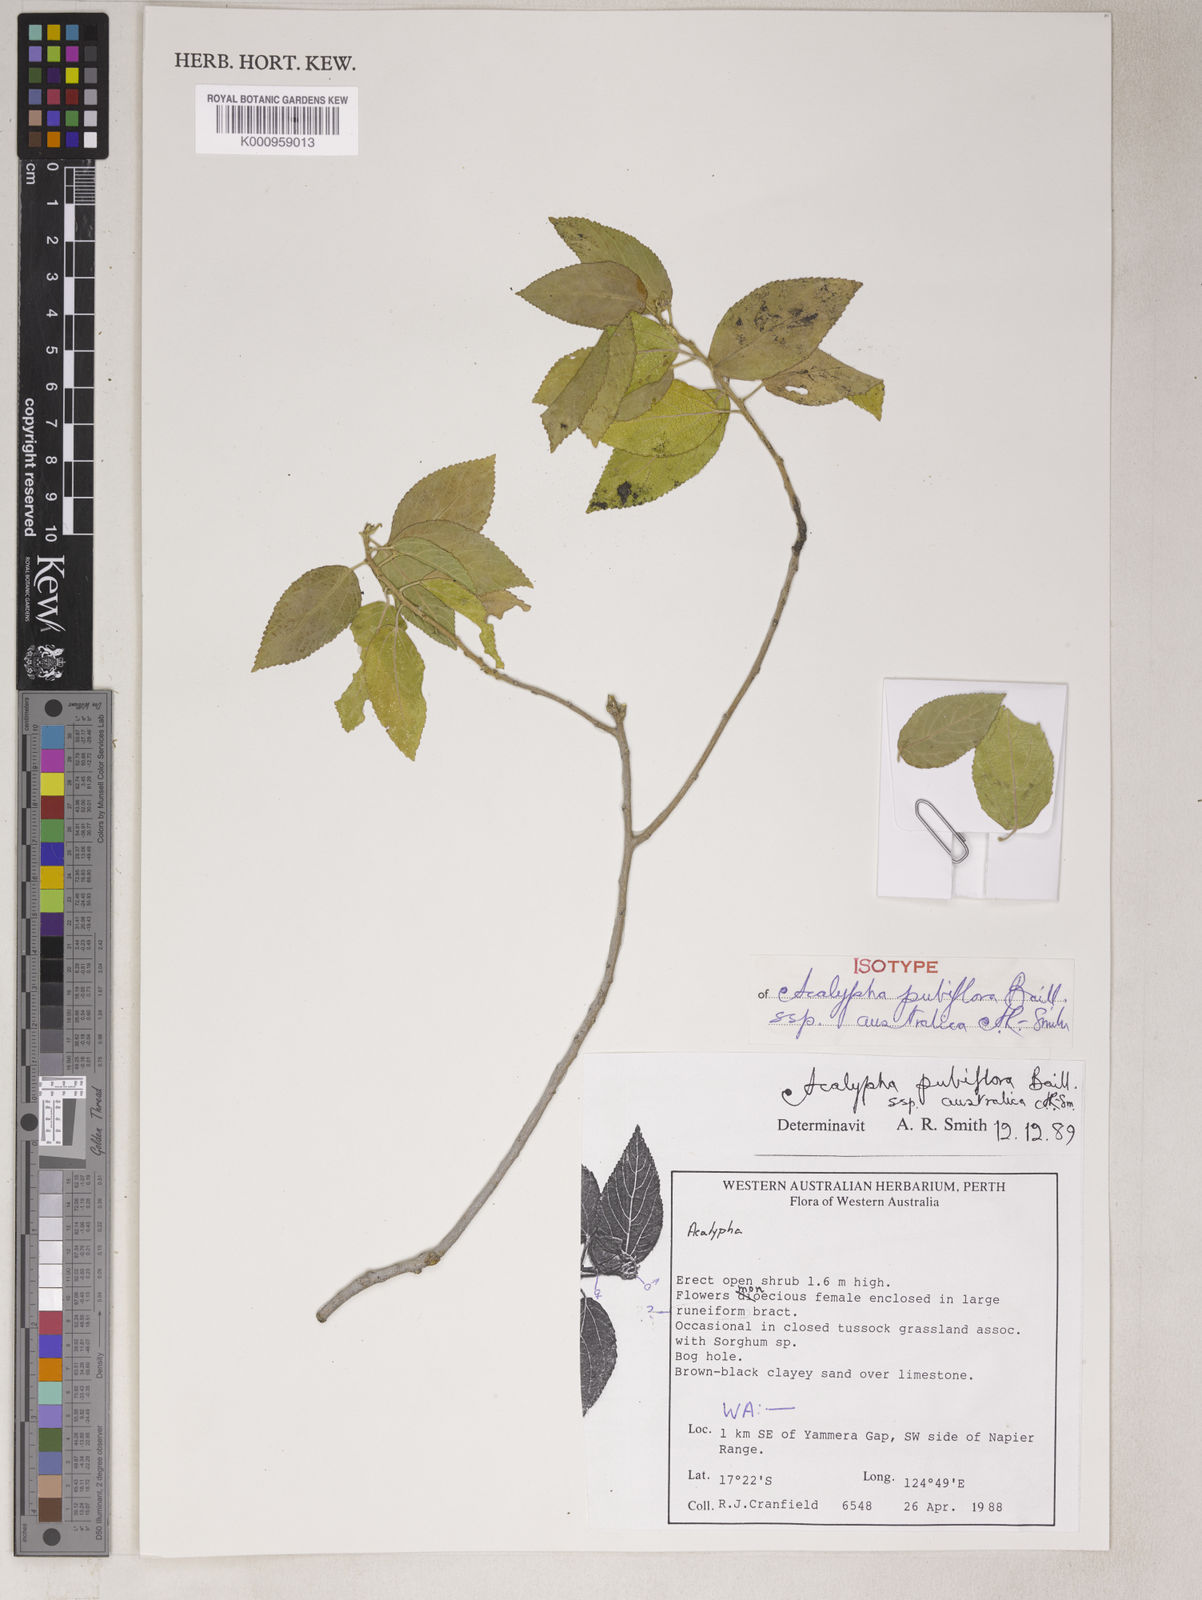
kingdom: Plantae
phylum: Tracheophyta
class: Magnoliopsida
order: Malpighiales
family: Euphorbiaceae
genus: Acalypha
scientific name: Acalypha pubiflora
